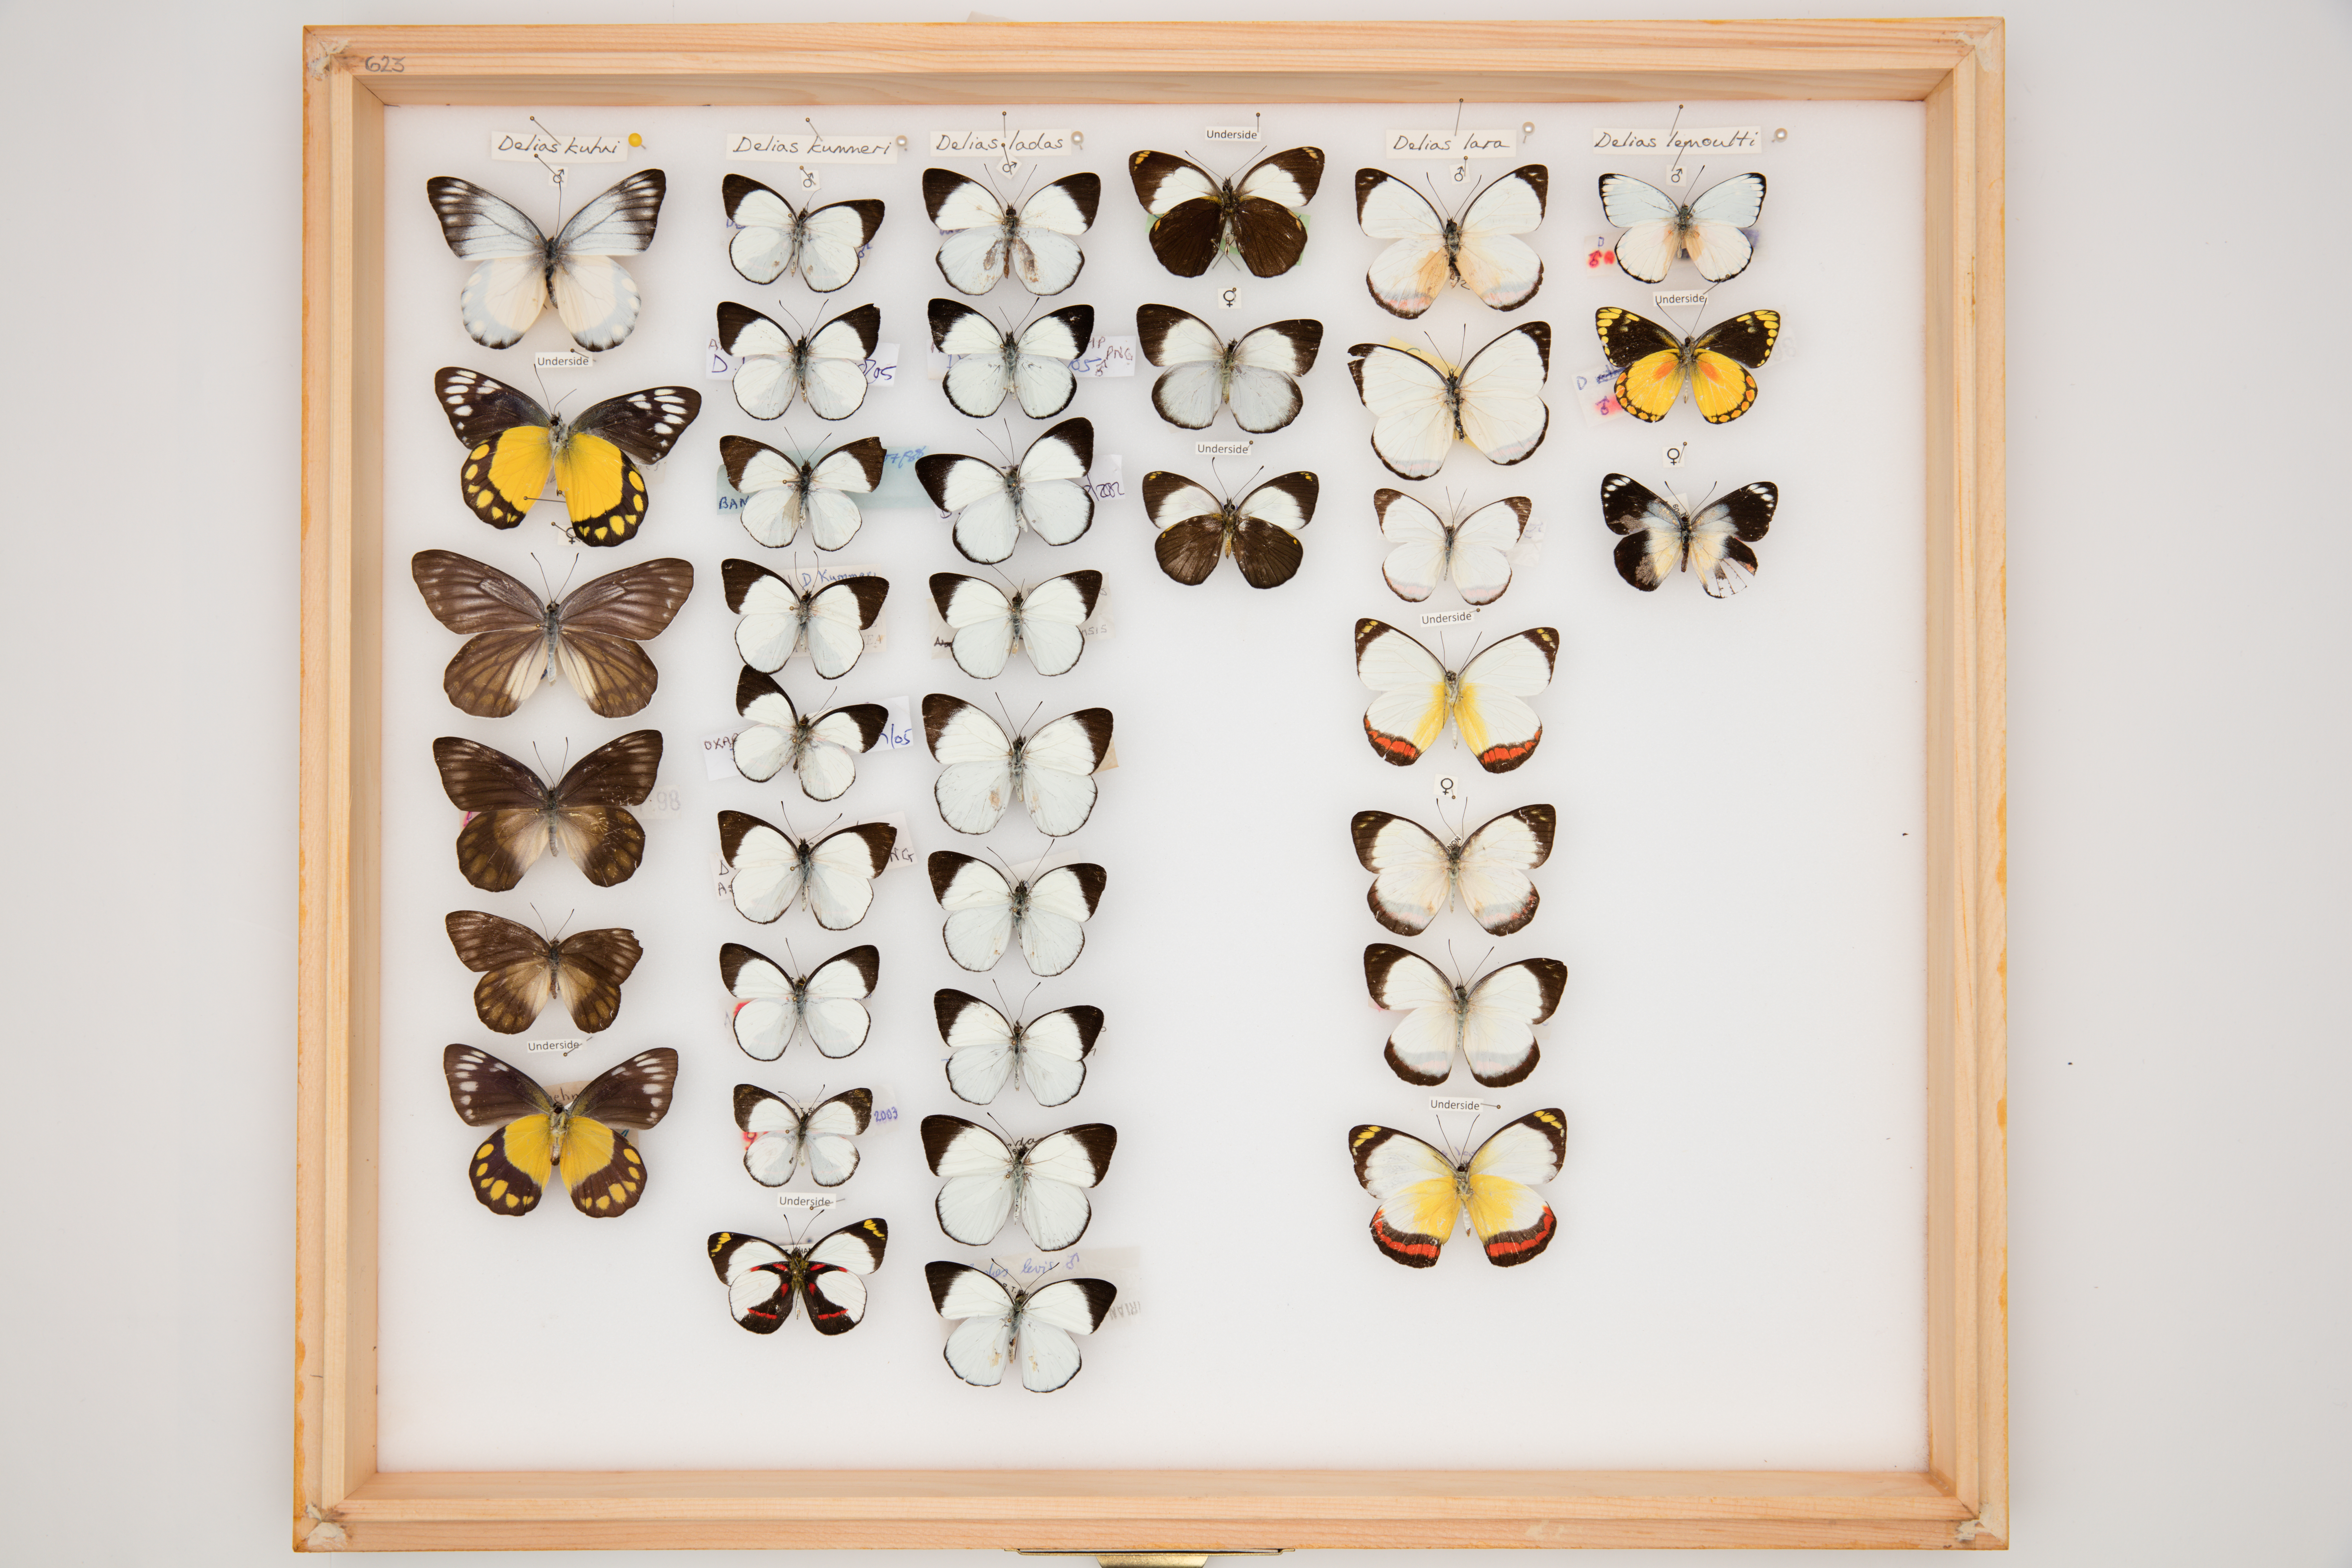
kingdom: Animalia
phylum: Arthropoda
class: Insecta
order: Lepidoptera
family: Pieridae
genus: Delias
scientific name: Delias ladas
